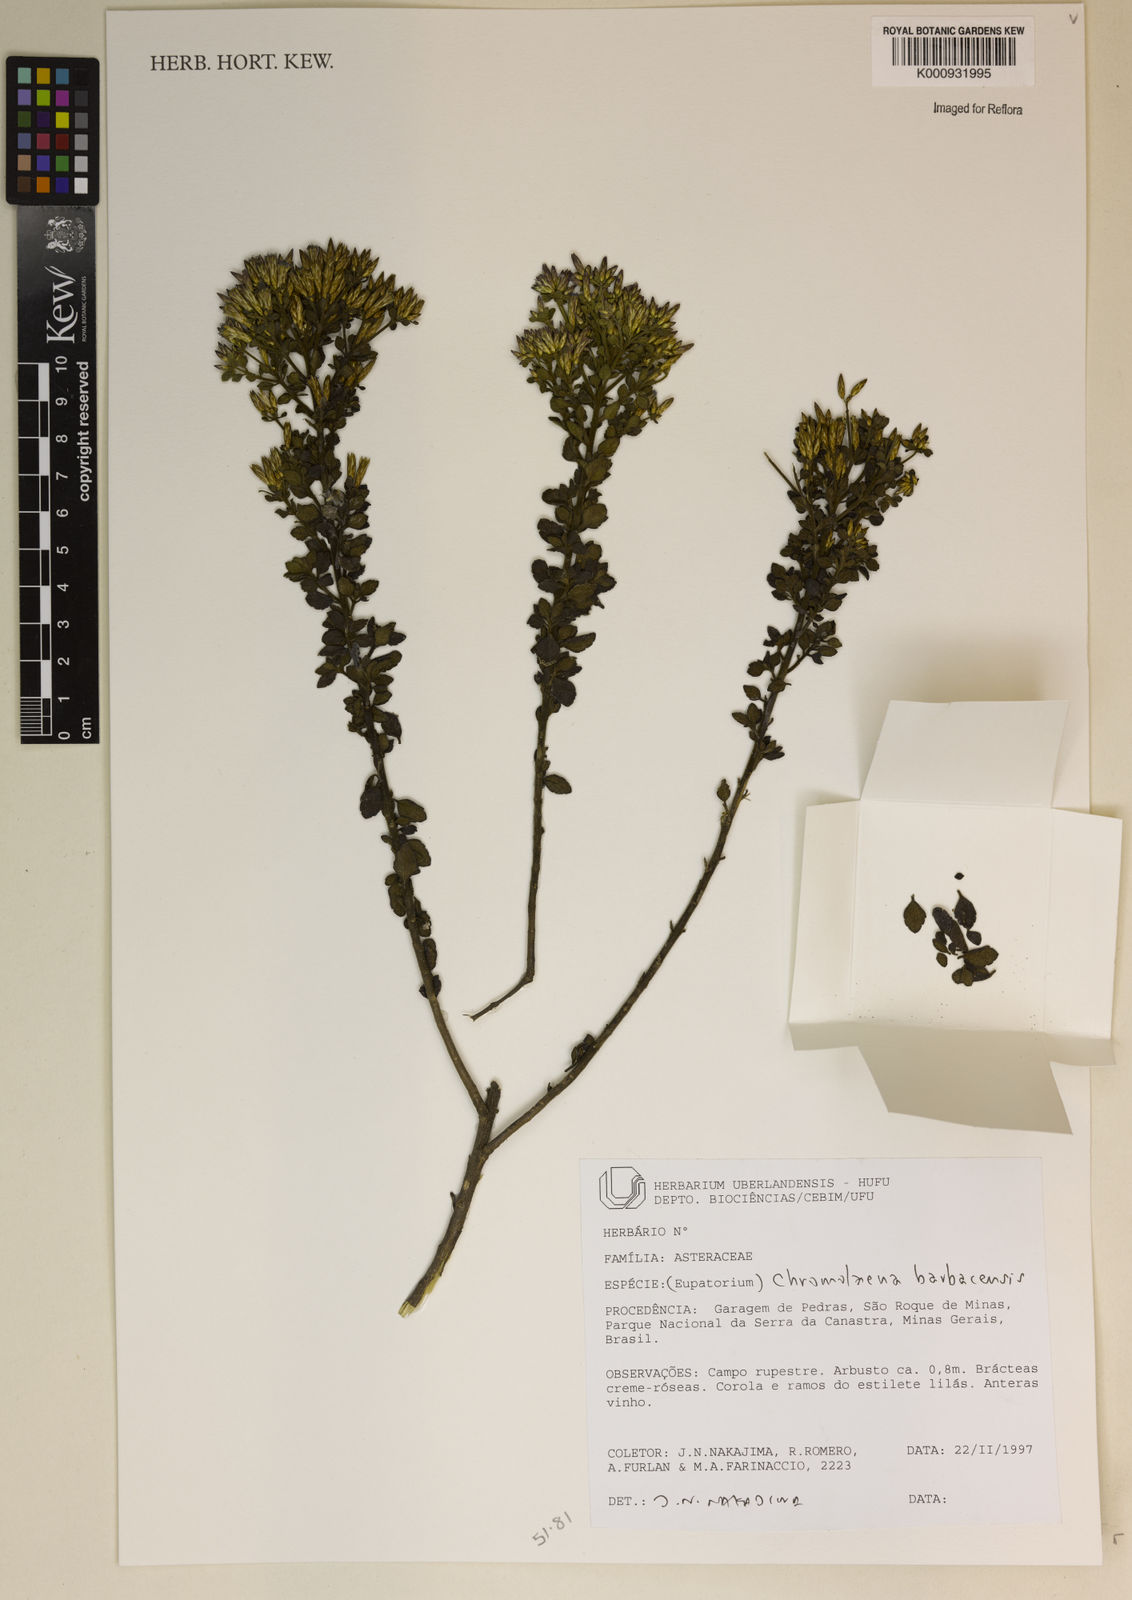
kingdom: Plantae
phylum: Tracheophyta
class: Magnoliopsida
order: Asterales
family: Asteraceae
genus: Chromolaena
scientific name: Chromolaena barbacensis
